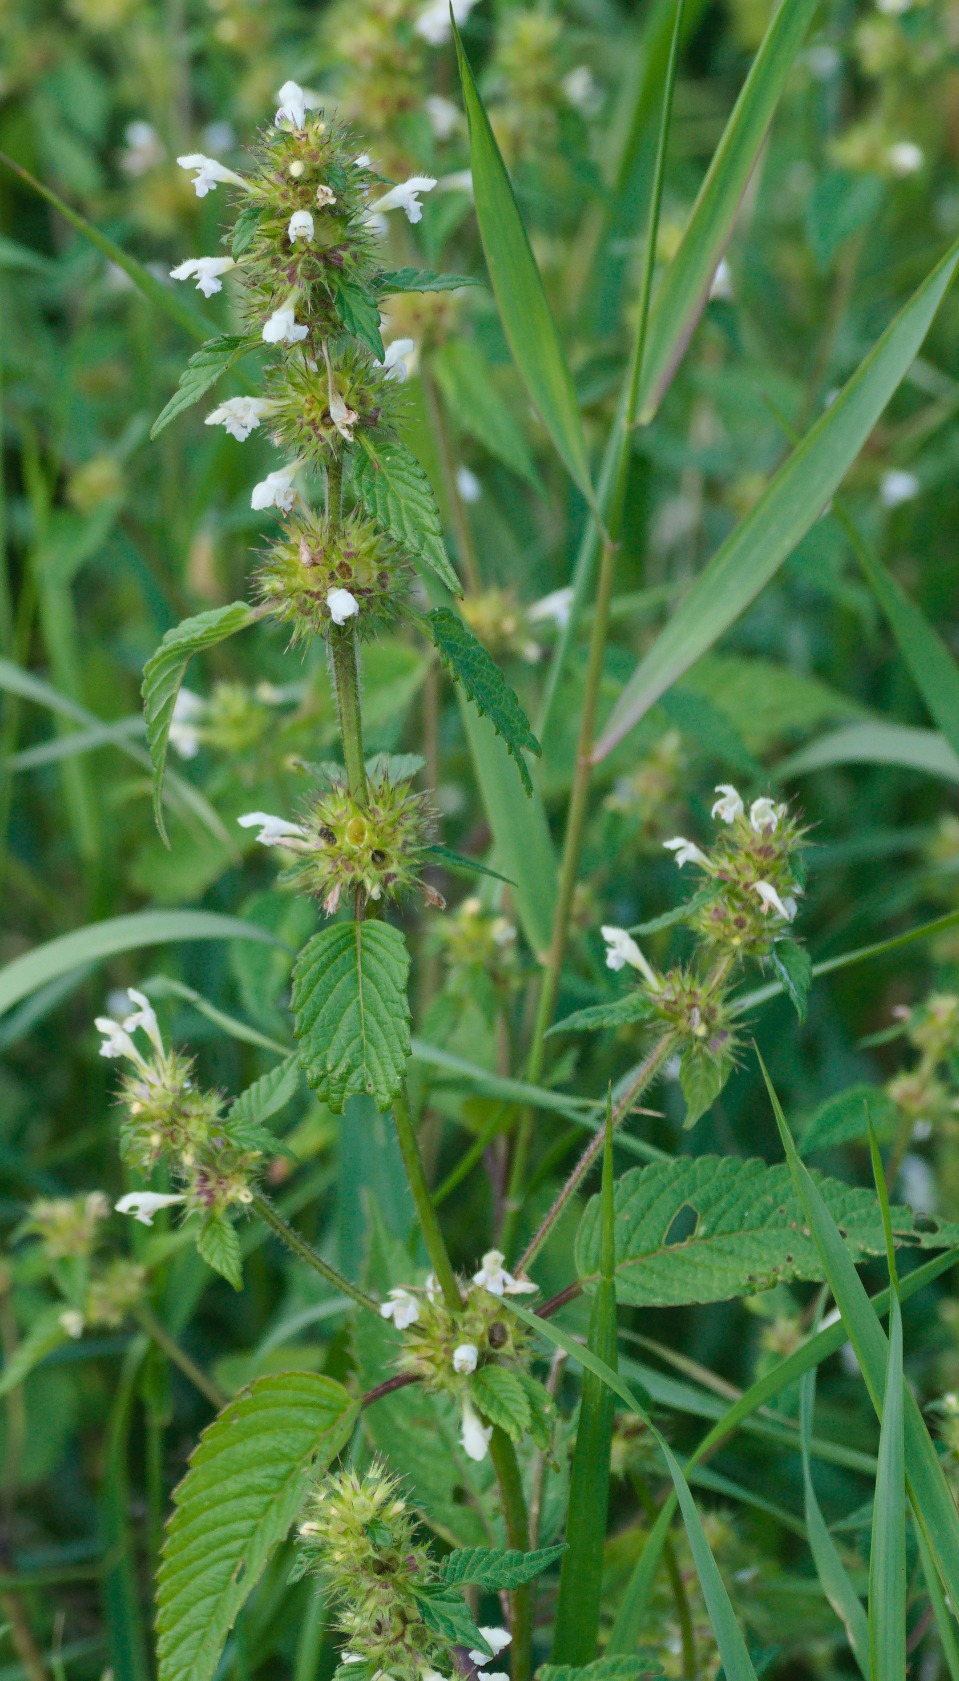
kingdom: Plantae
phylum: Tracheophyta
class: Magnoliopsida
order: Lamiales
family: Lamiaceae
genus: Galeopsis
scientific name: Galeopsis bifida
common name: Skov-hanekro
